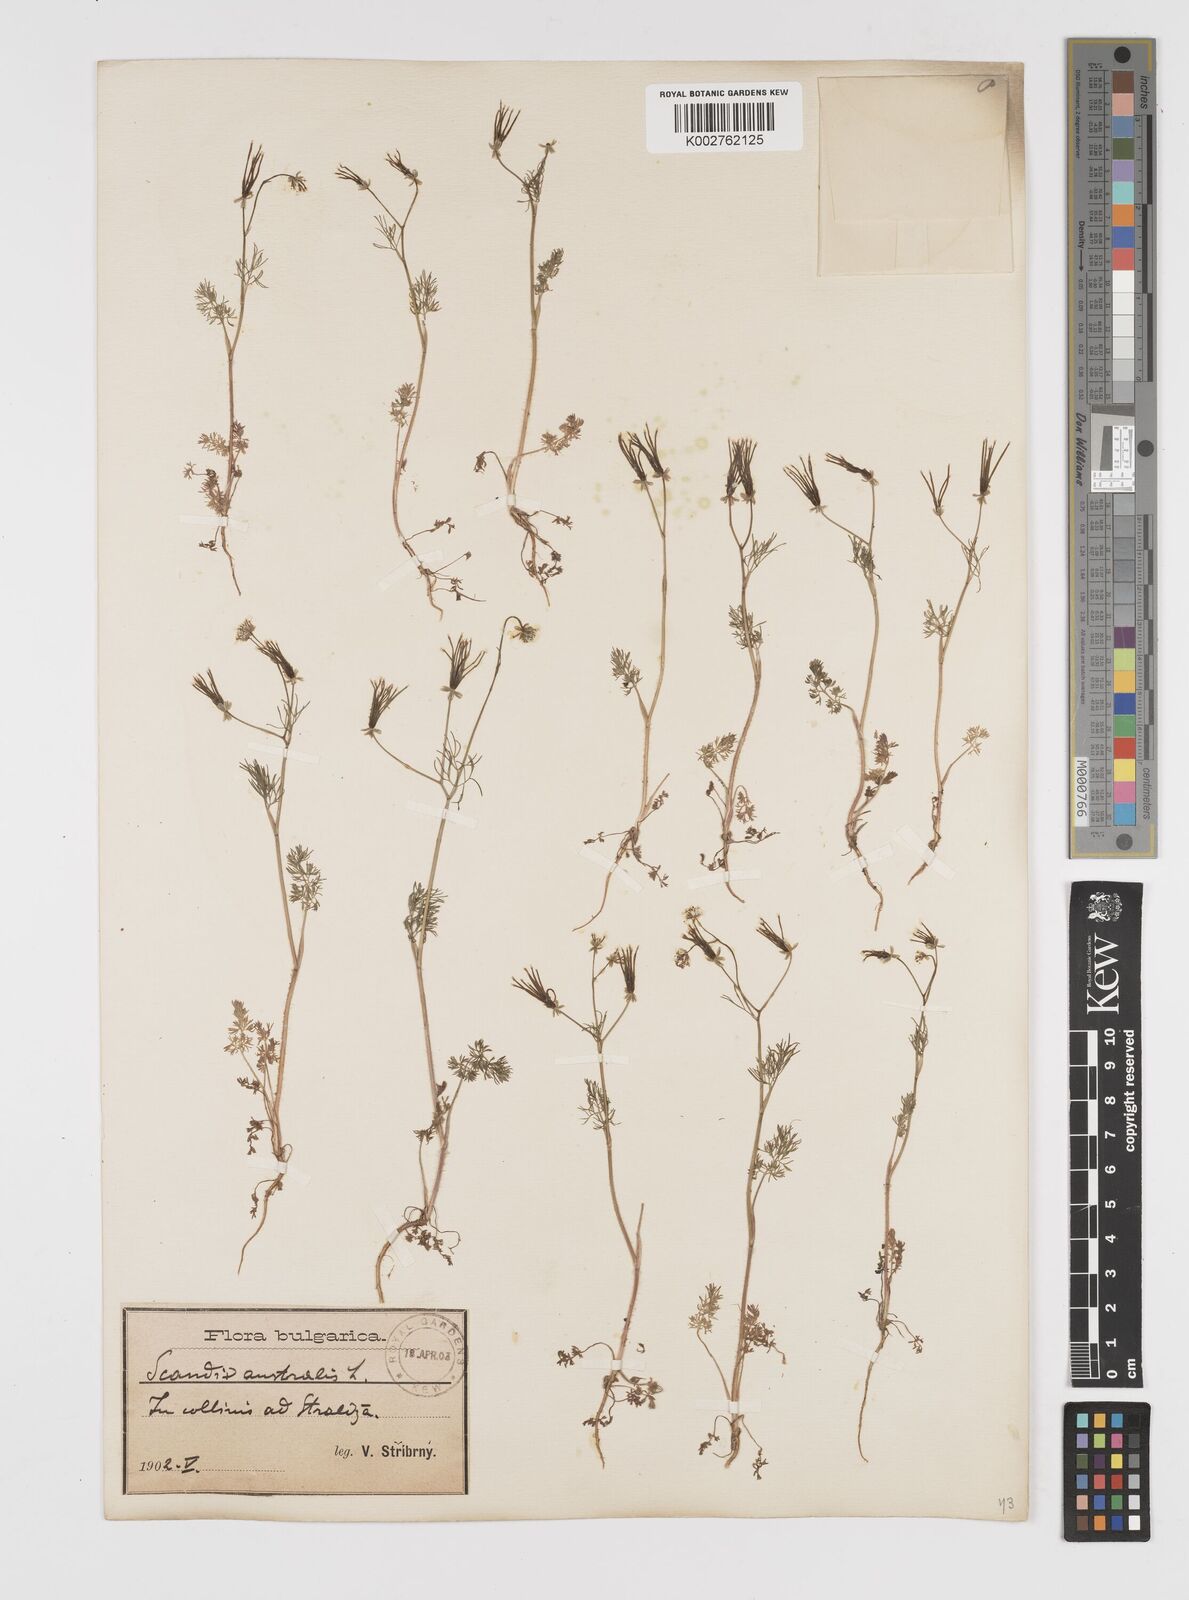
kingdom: Plantae
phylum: Tracheophyta
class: Magnoliopsida
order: Apiales
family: Apiaceae
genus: Scandix
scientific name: Scandix australis
